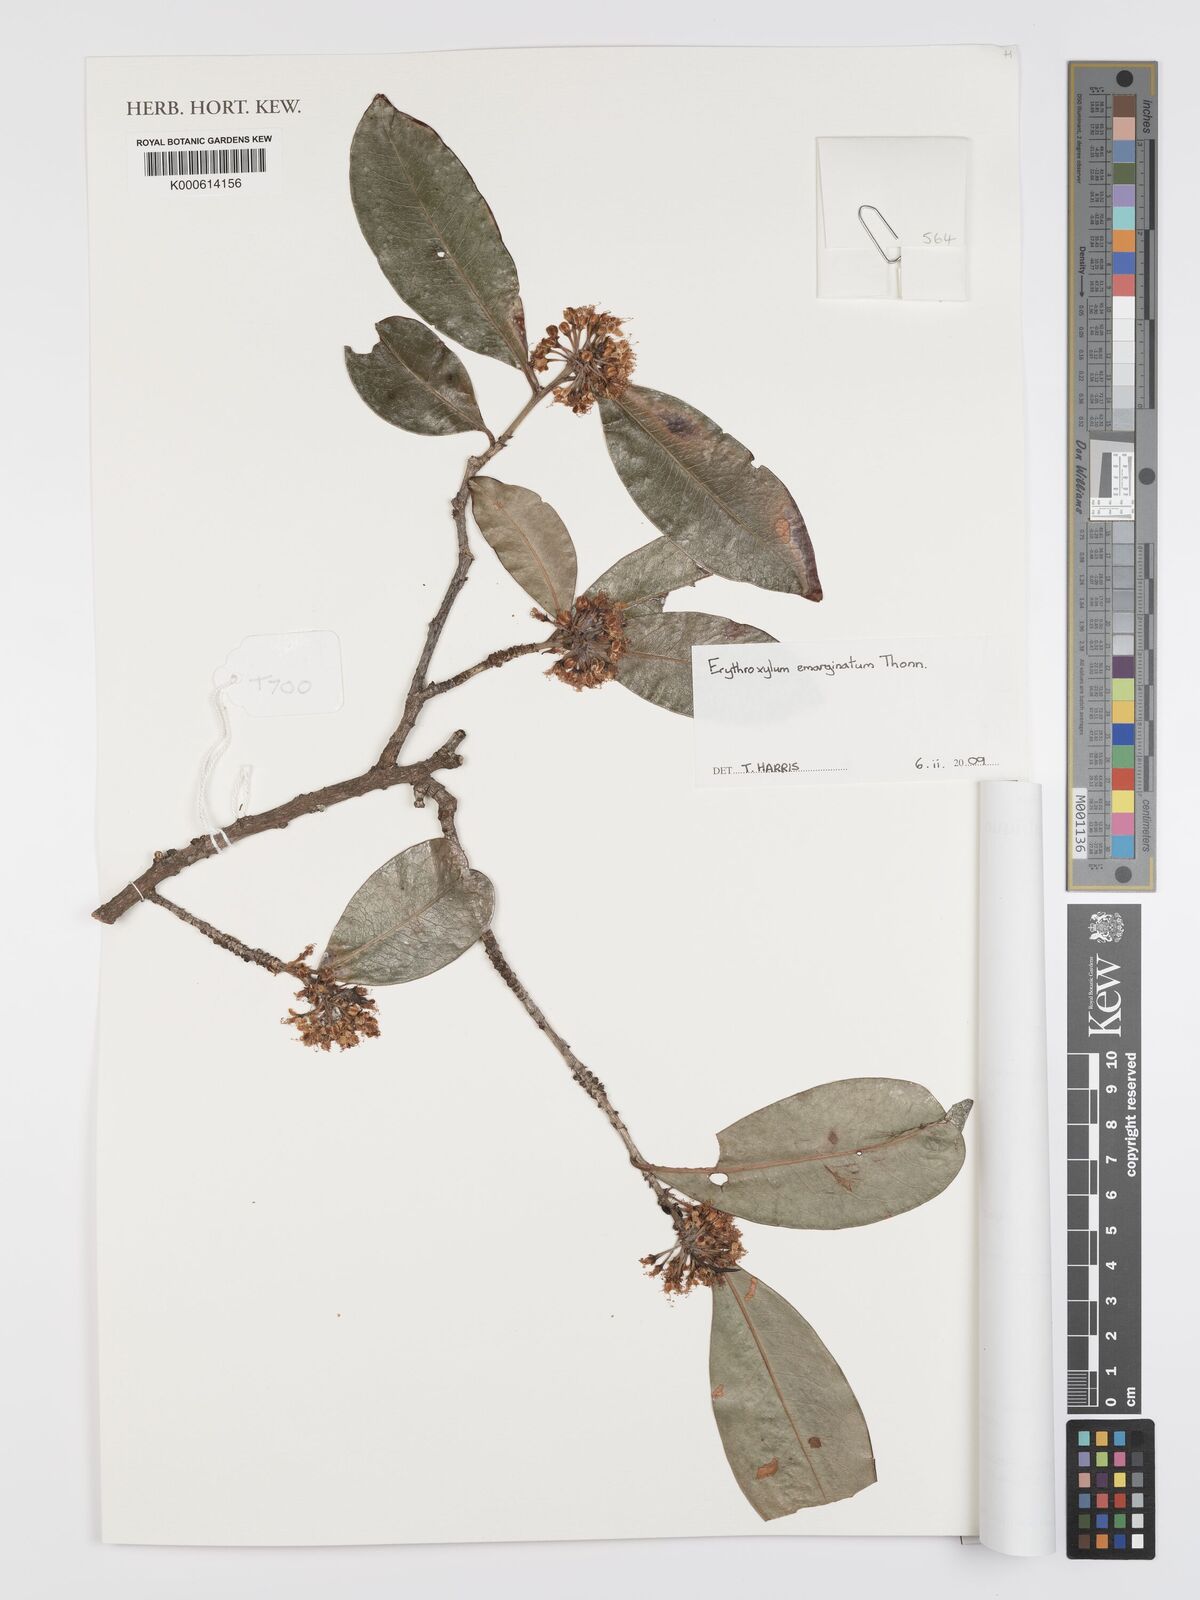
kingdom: Plantae
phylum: Tracheophyta
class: Magnoliopsida
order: Malpighiales
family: Erythroxylaceae
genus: Erythroxylum
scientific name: Erythroxylum emarginatum
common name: African coca-tree
